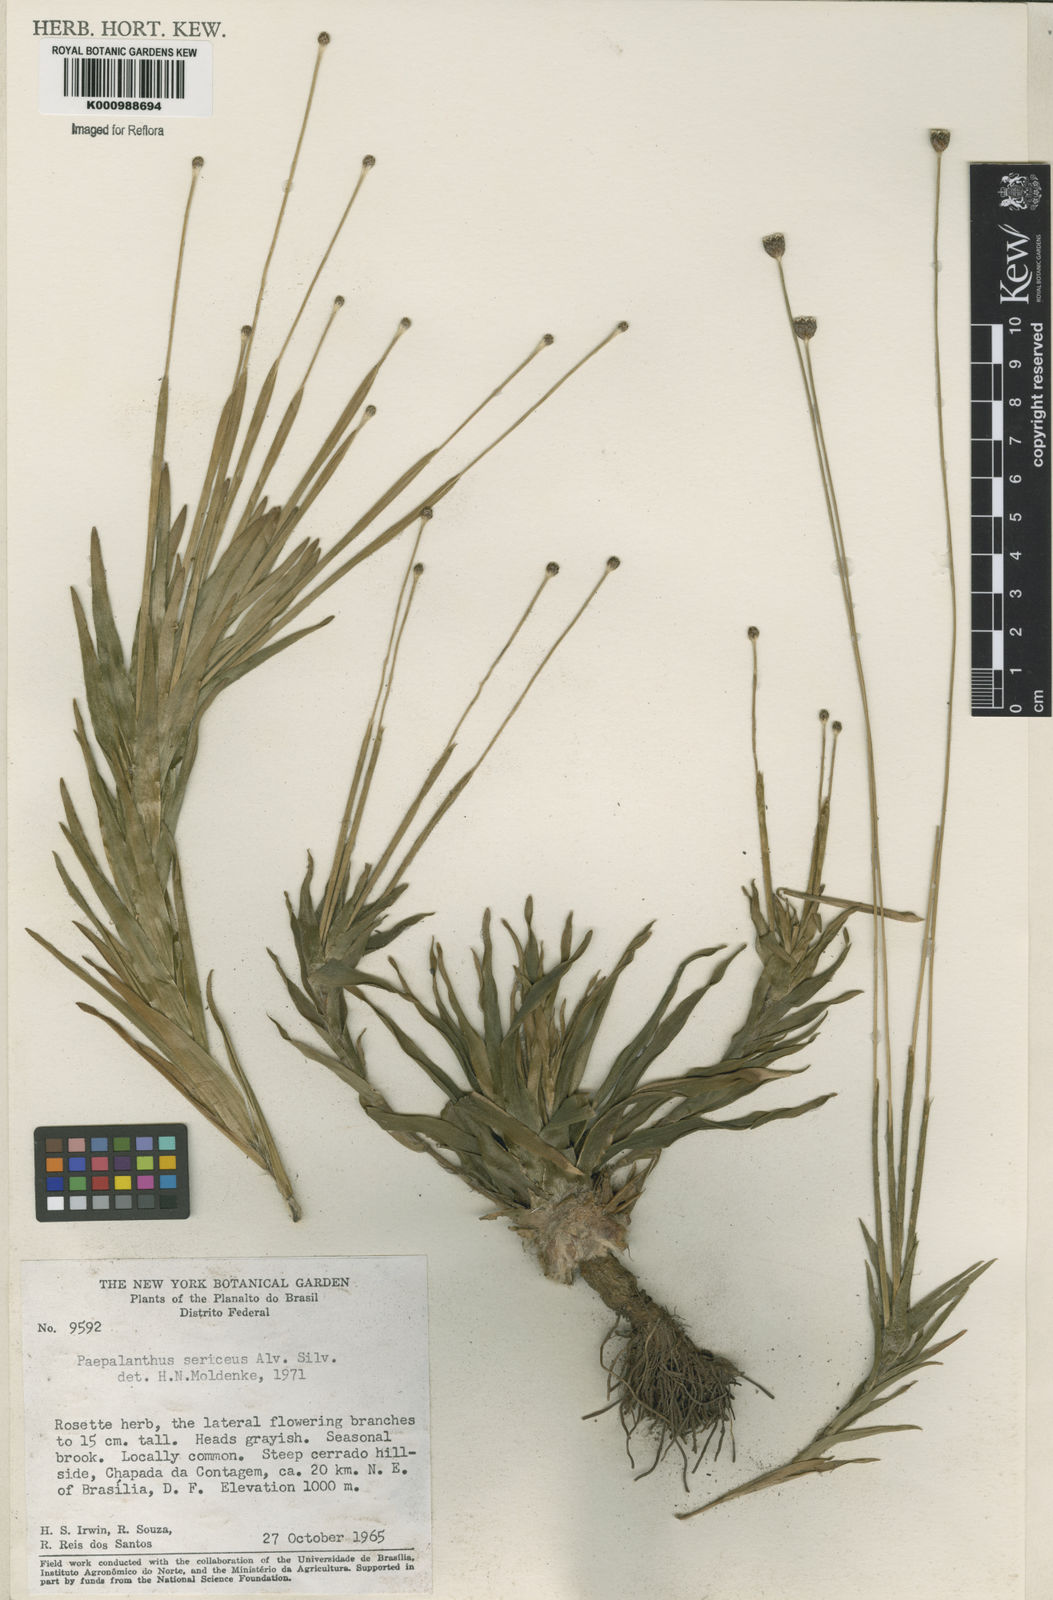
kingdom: Plantae
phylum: Tracheophyta
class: Liliopsida
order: Poales
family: Eriocaulaceae
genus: Paepalanthus
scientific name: Paepalanthus sericeus
